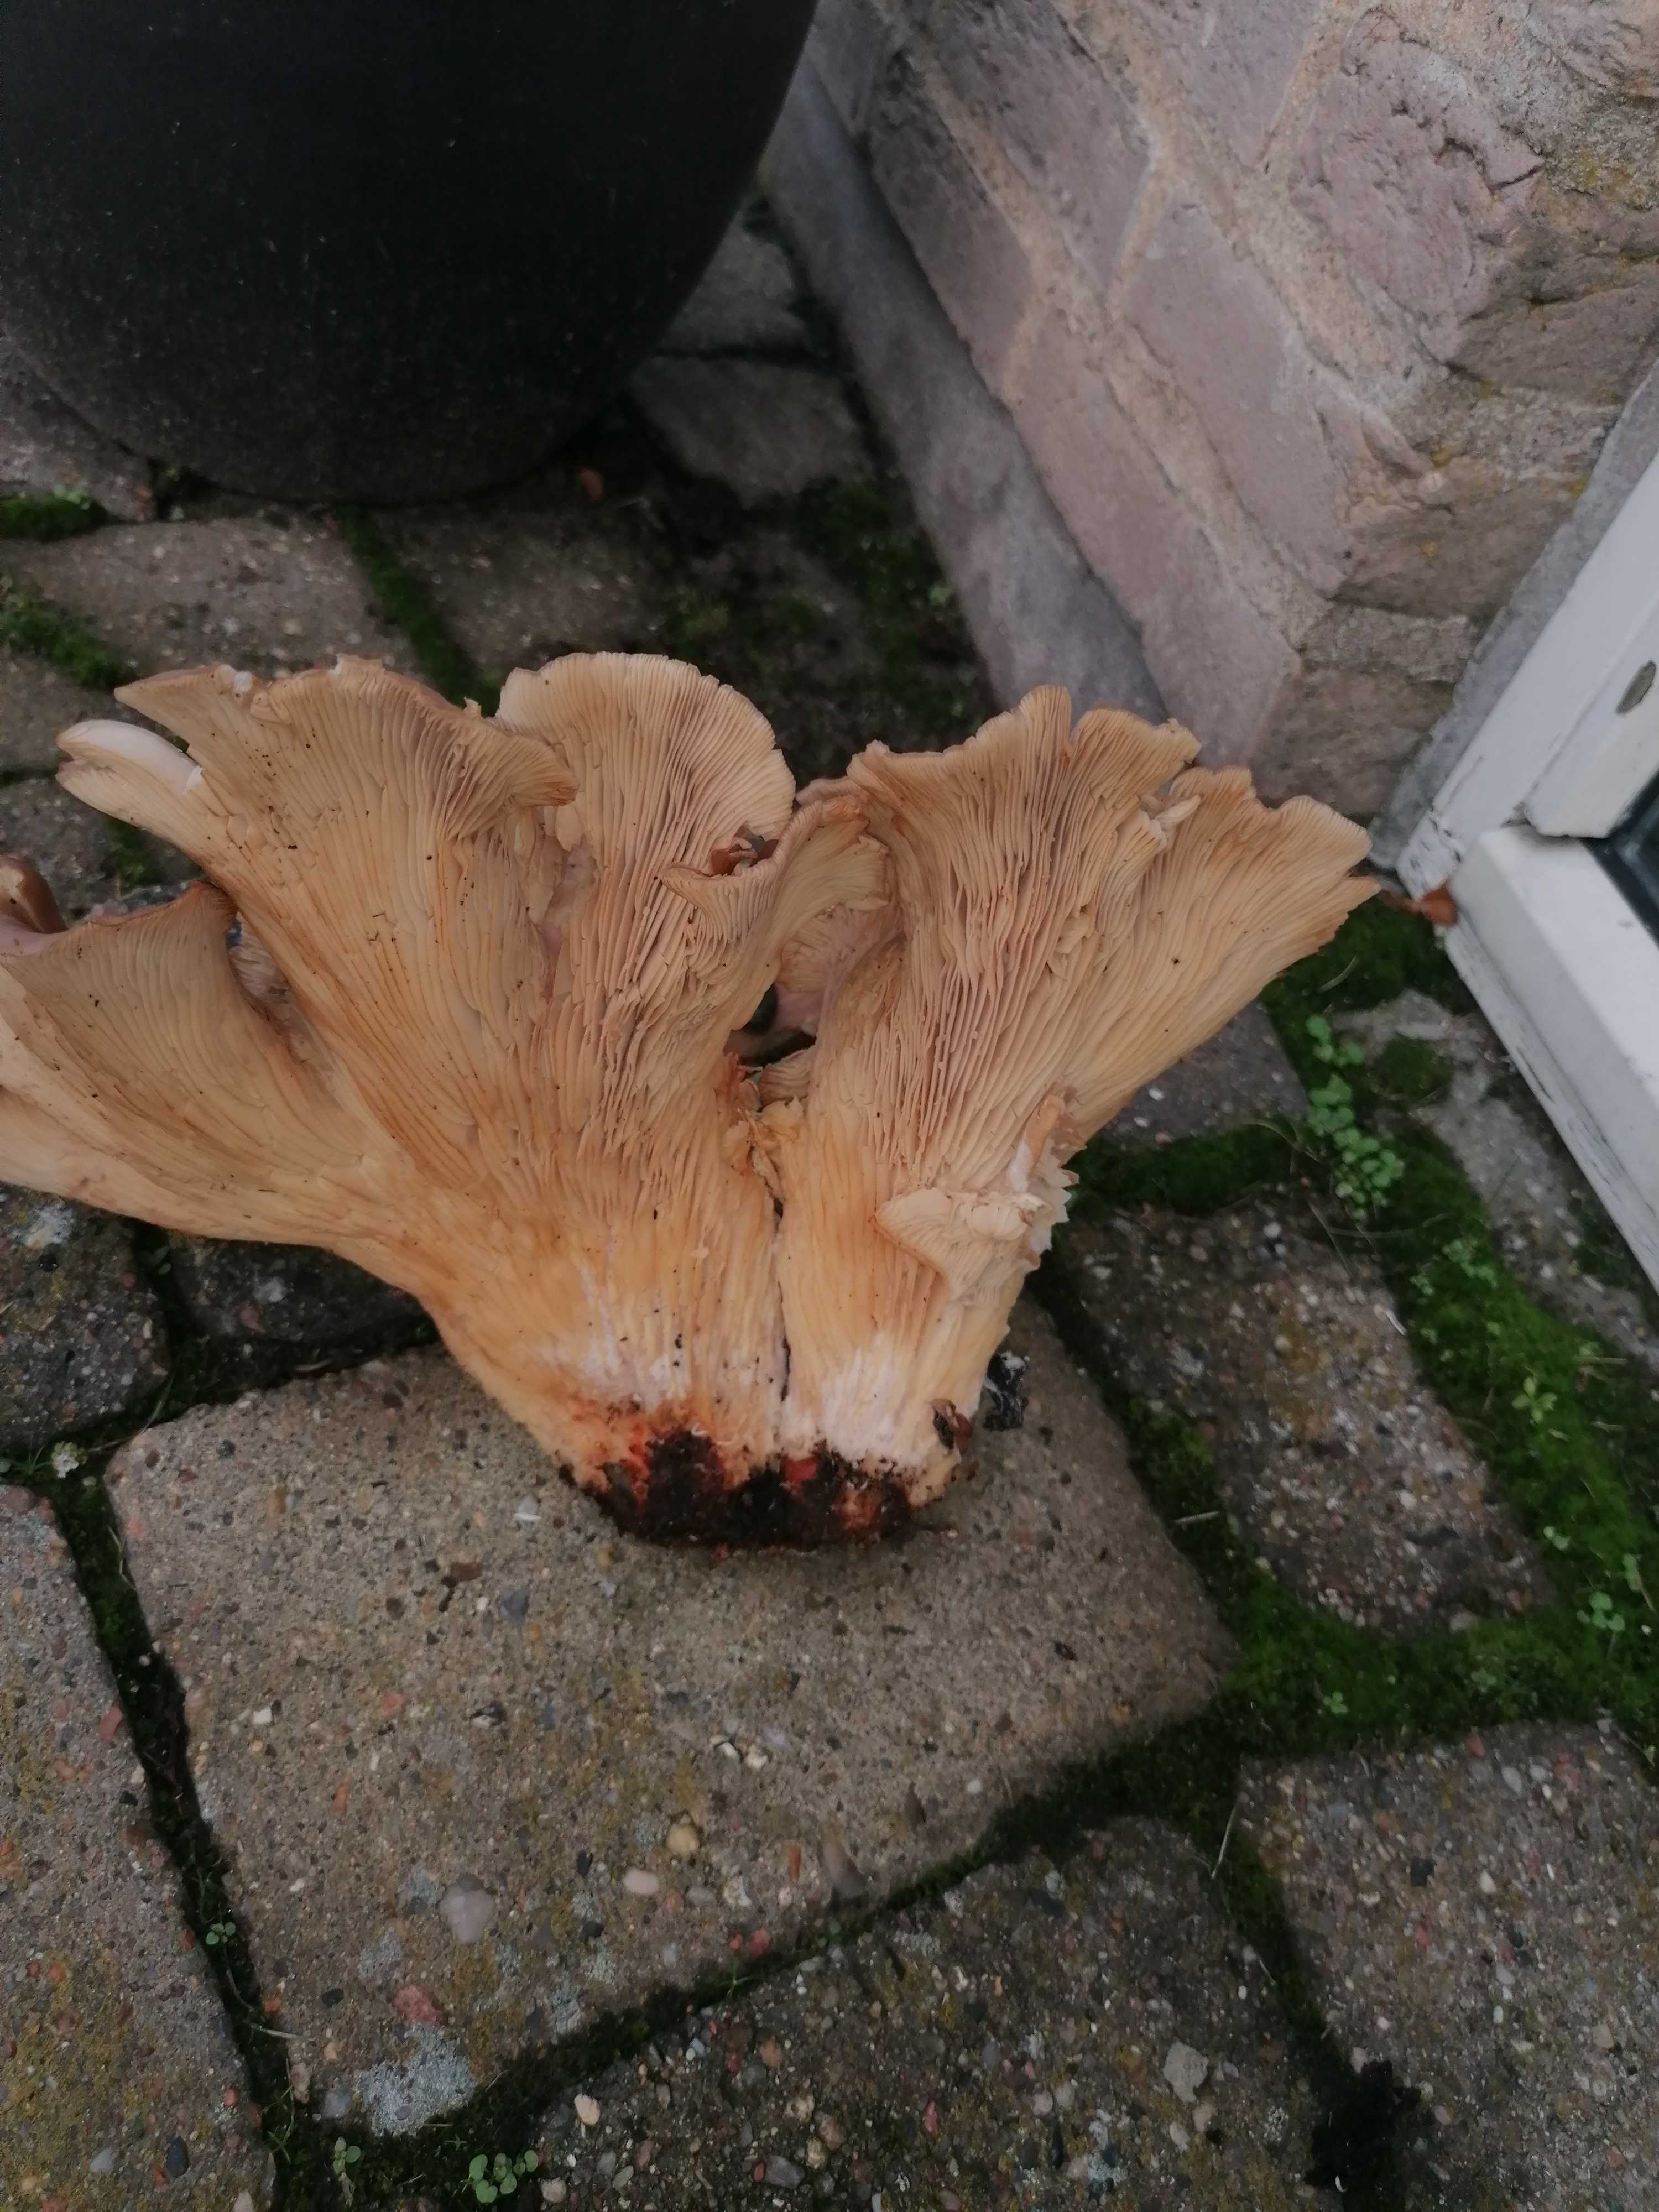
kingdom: Fungi
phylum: Basidiomycota
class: Agaricomycetes
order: Agaricales
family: Pleurotaceae
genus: Pleurotus
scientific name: Pleurotus ostreatus
